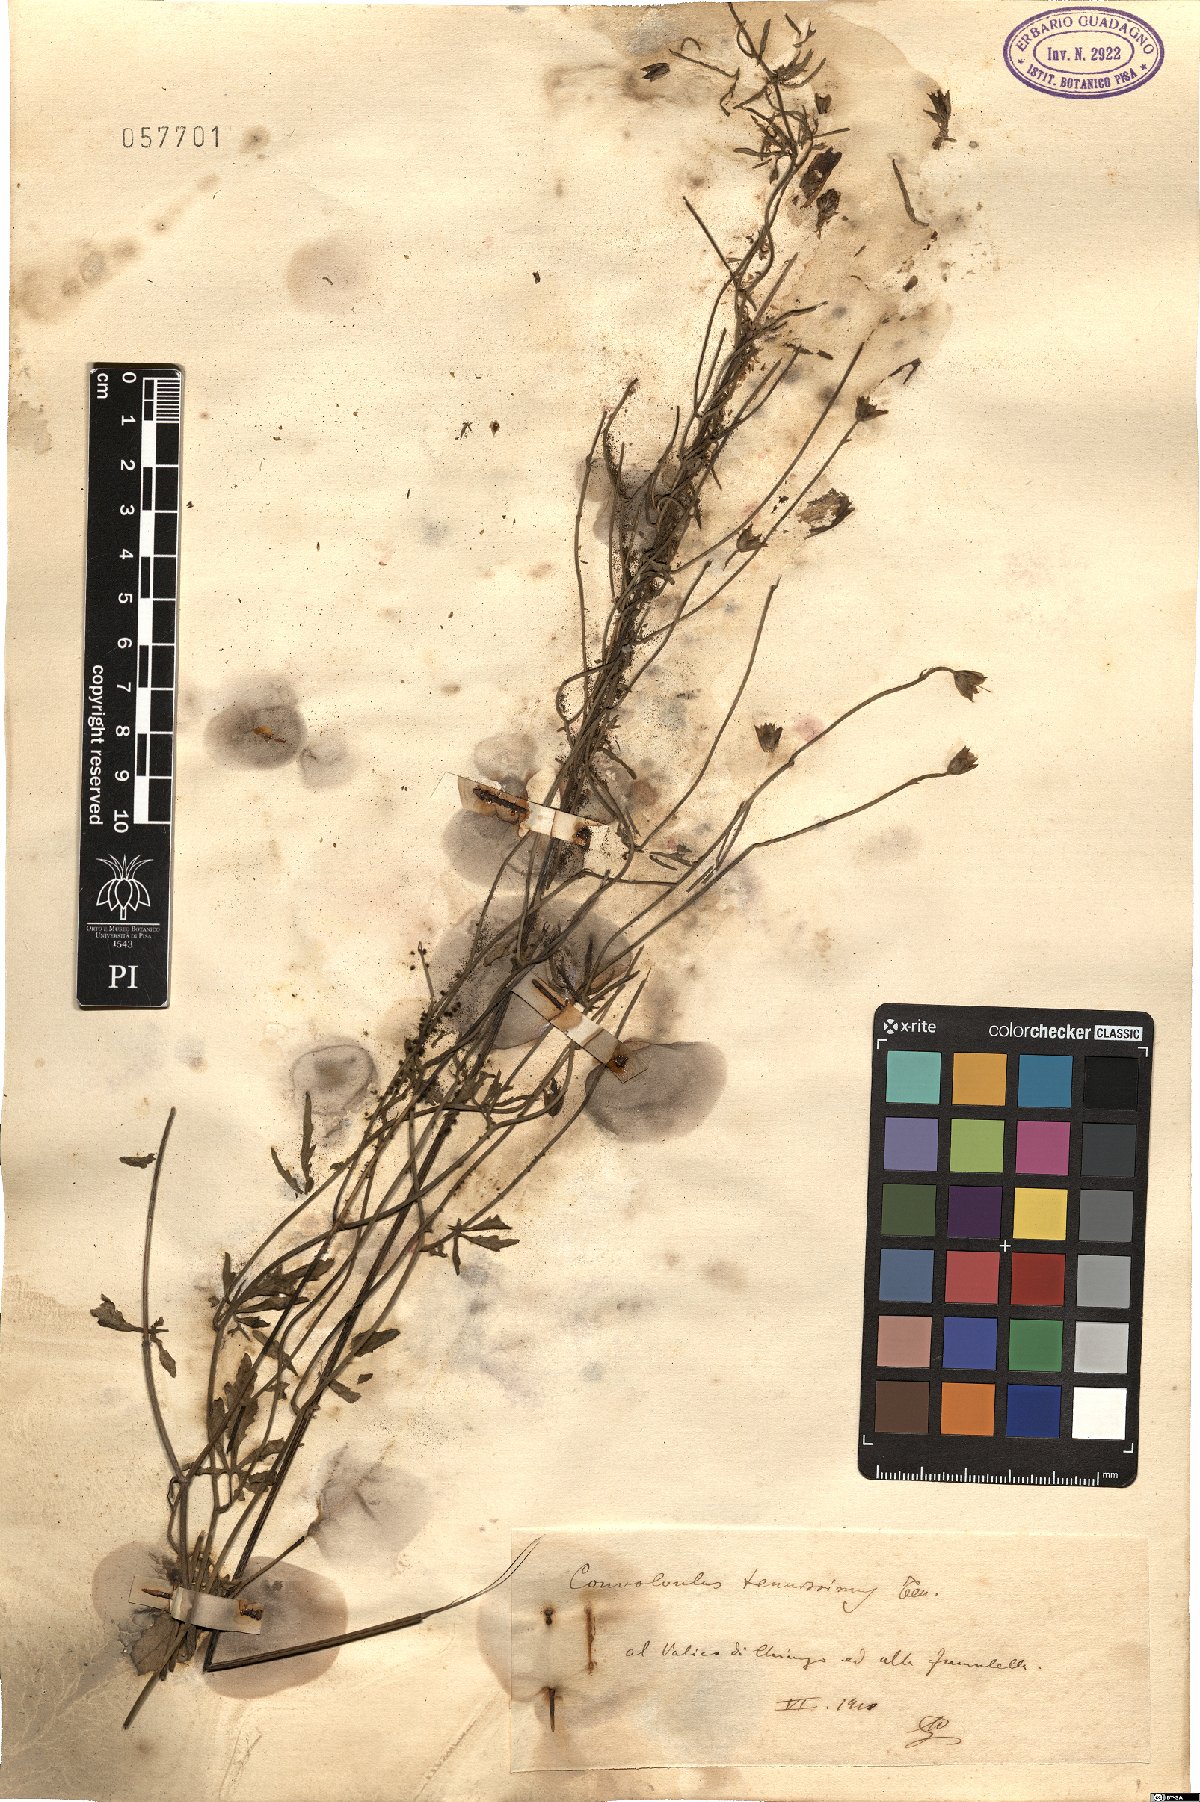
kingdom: Plantae
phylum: Tracheophyta
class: Magnoliopsida
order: Solanales
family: Convolvulaceae
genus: Convolvulus
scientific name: Convolvulus elegantissimus
